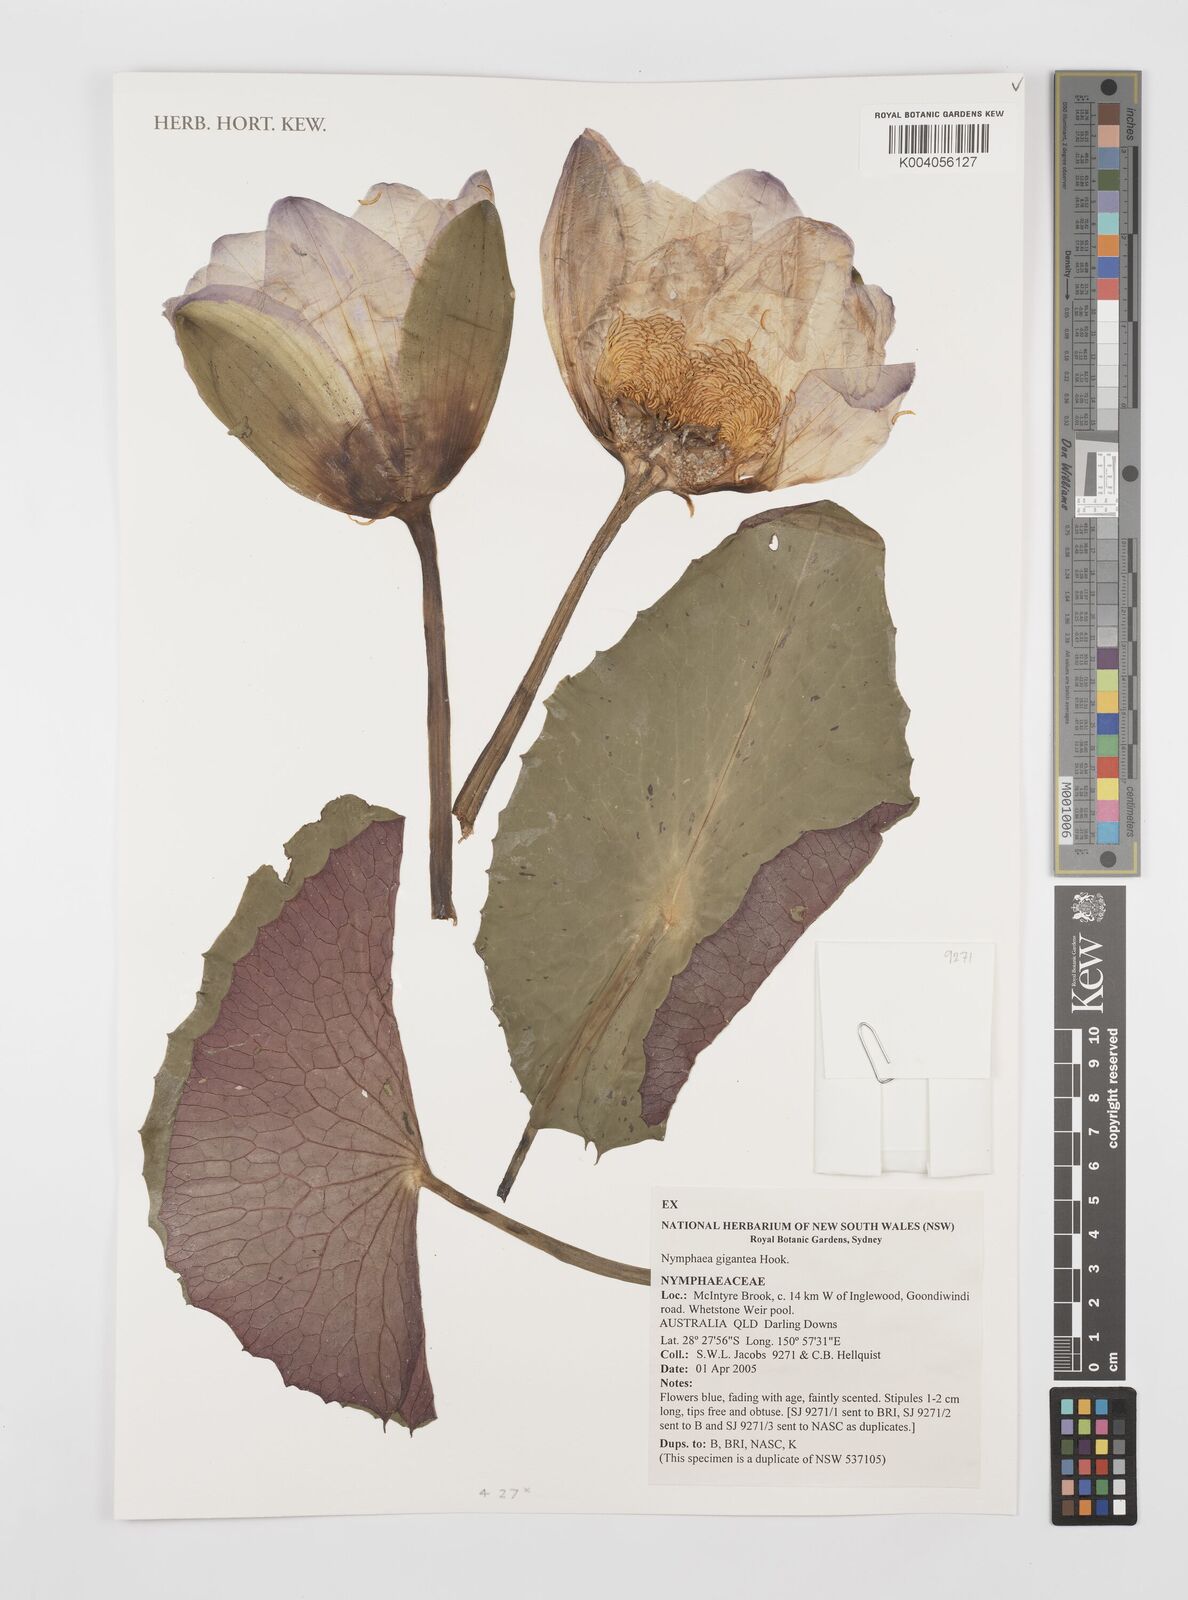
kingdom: Plantae
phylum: Tracheophyta
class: Magnoliopsida
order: Nymphaeales
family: Nymphaeaceae
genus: Nymphaea
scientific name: Nymphaea gigantea
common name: Giant water-lily
